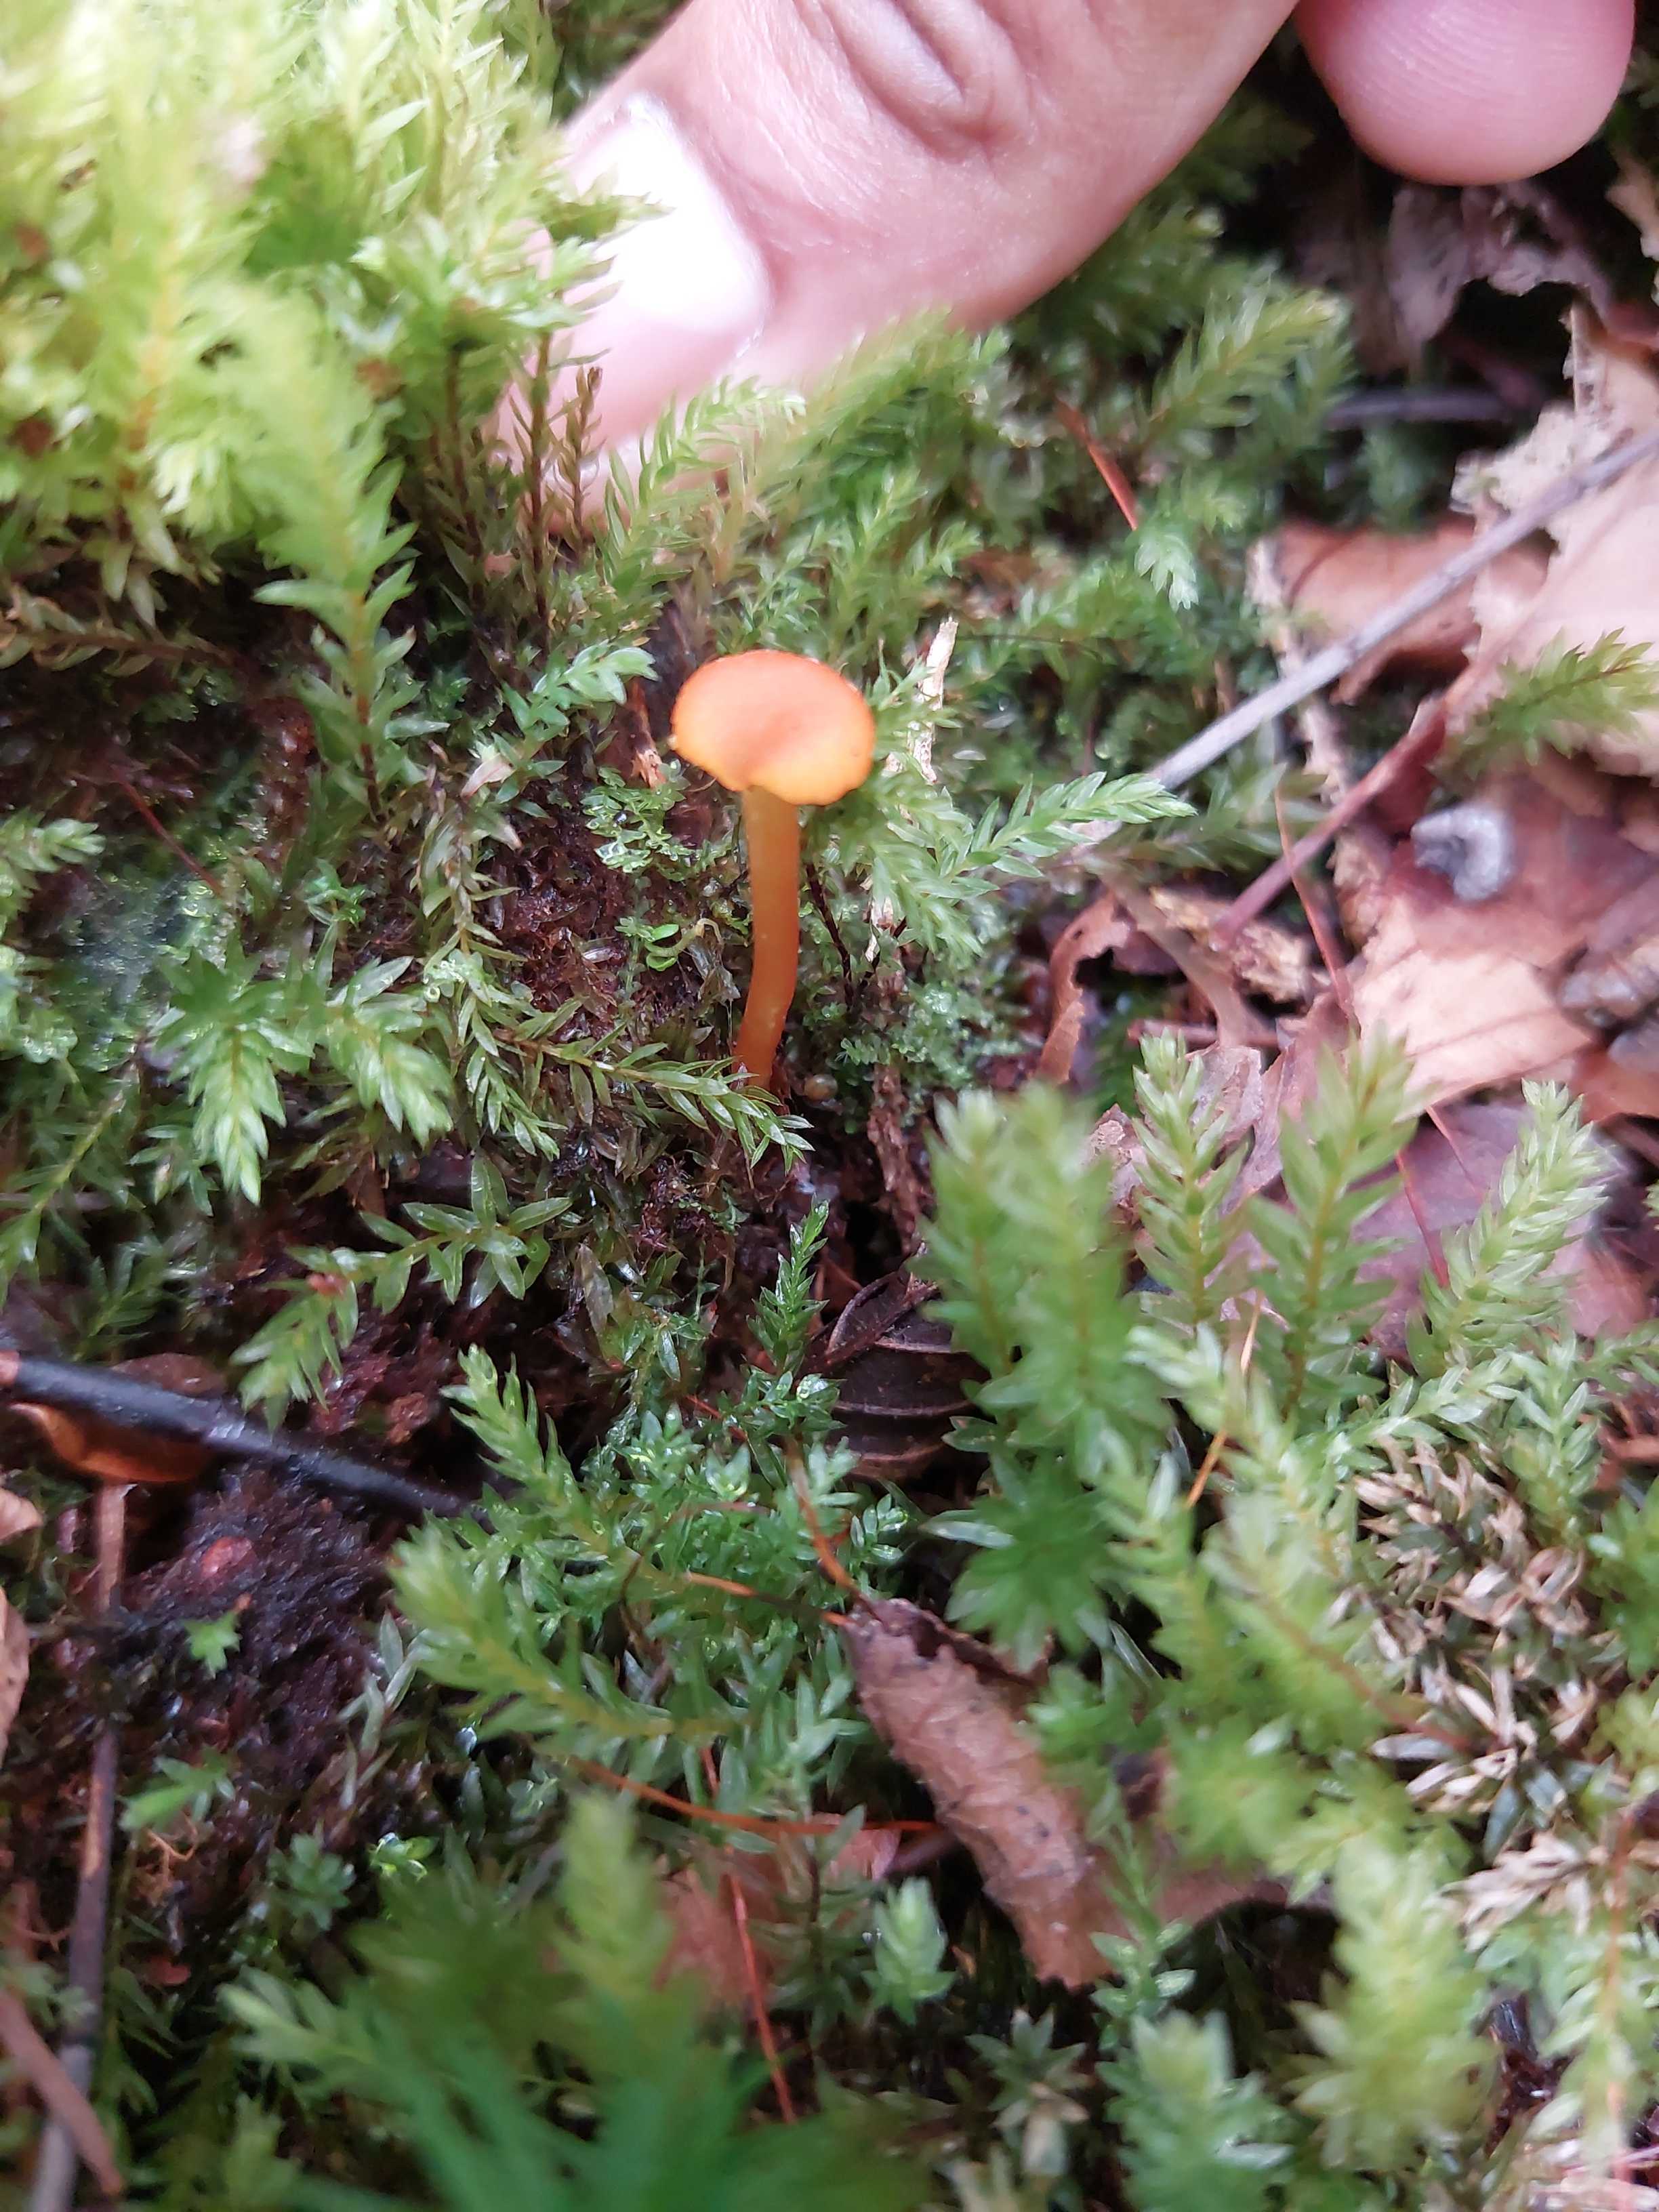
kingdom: Fungi
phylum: Basidiomycota
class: Agaricomycetes
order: Hymenochaetales
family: Rickenellaceae
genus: Rickenella
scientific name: Rickenella fibula
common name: orange mosnavlehat
